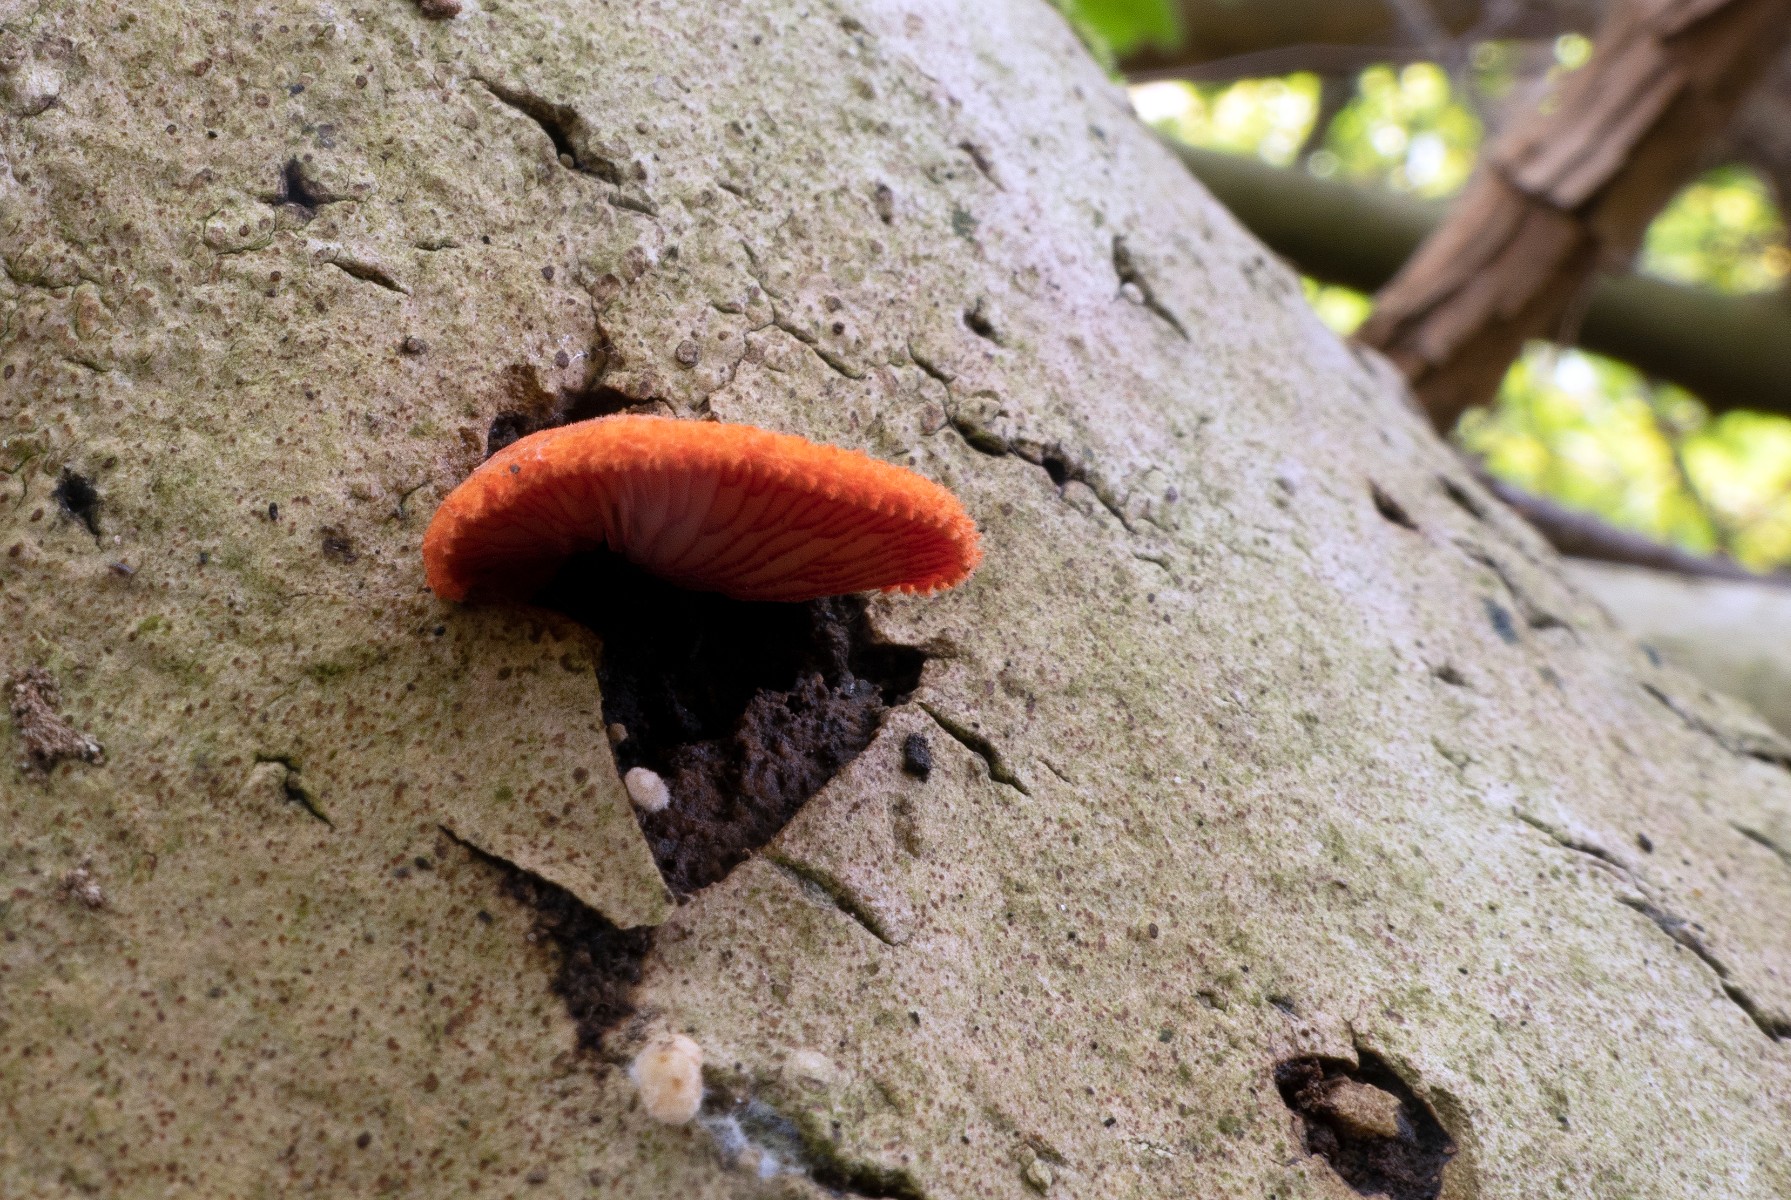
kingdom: Fungi
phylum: Basidiomycota
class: Agaricomycetes
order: Agaricales
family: Crepidotaceae
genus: Crepidotus
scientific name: Crepidotus cinnabarinus
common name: cinnober-muslingesvamp
